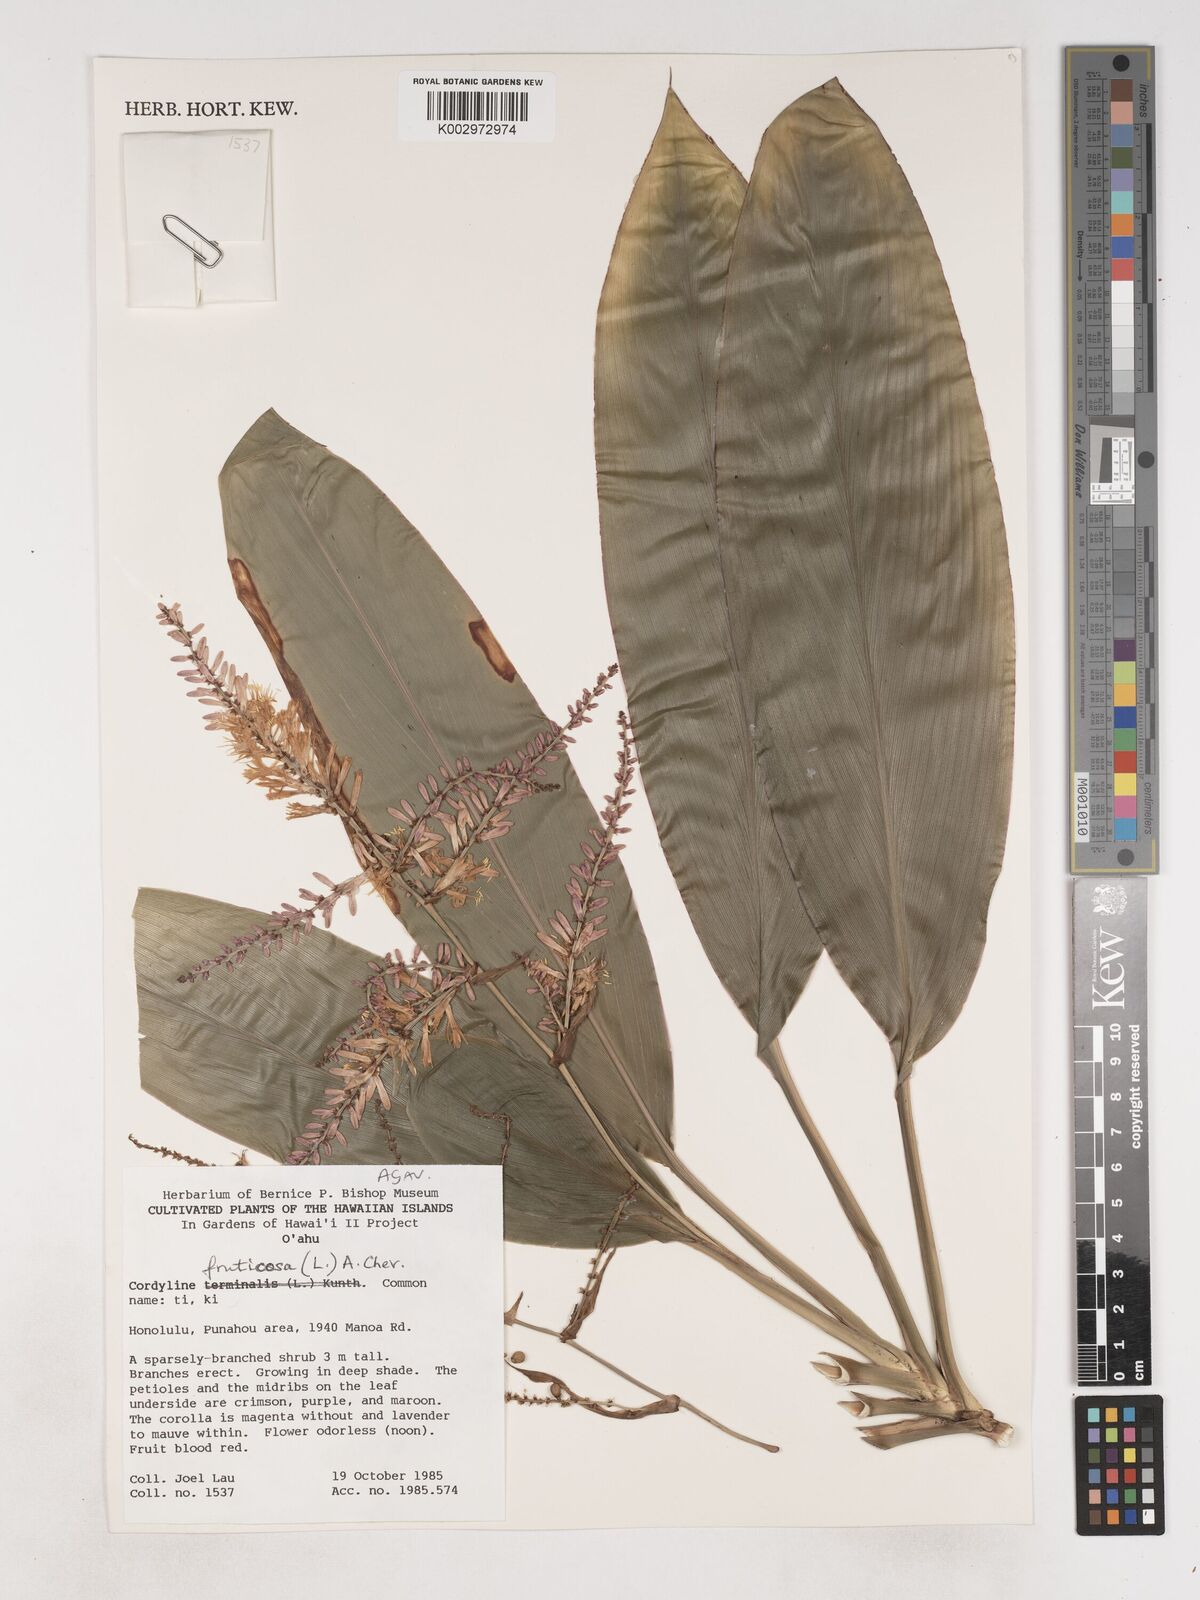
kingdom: Plantae
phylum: Tracheophyta
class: Liliopsida
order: Asparagales
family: Asparagaceae
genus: Cordyline
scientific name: Cordyline fruticosa
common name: Good-luck-plant
